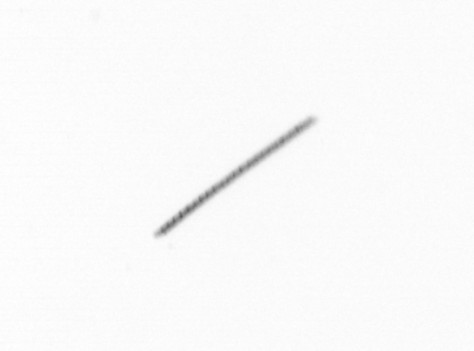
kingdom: Chromista
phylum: Ochrophyta
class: Bacillariophyceae
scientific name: Bacillariophyceae
